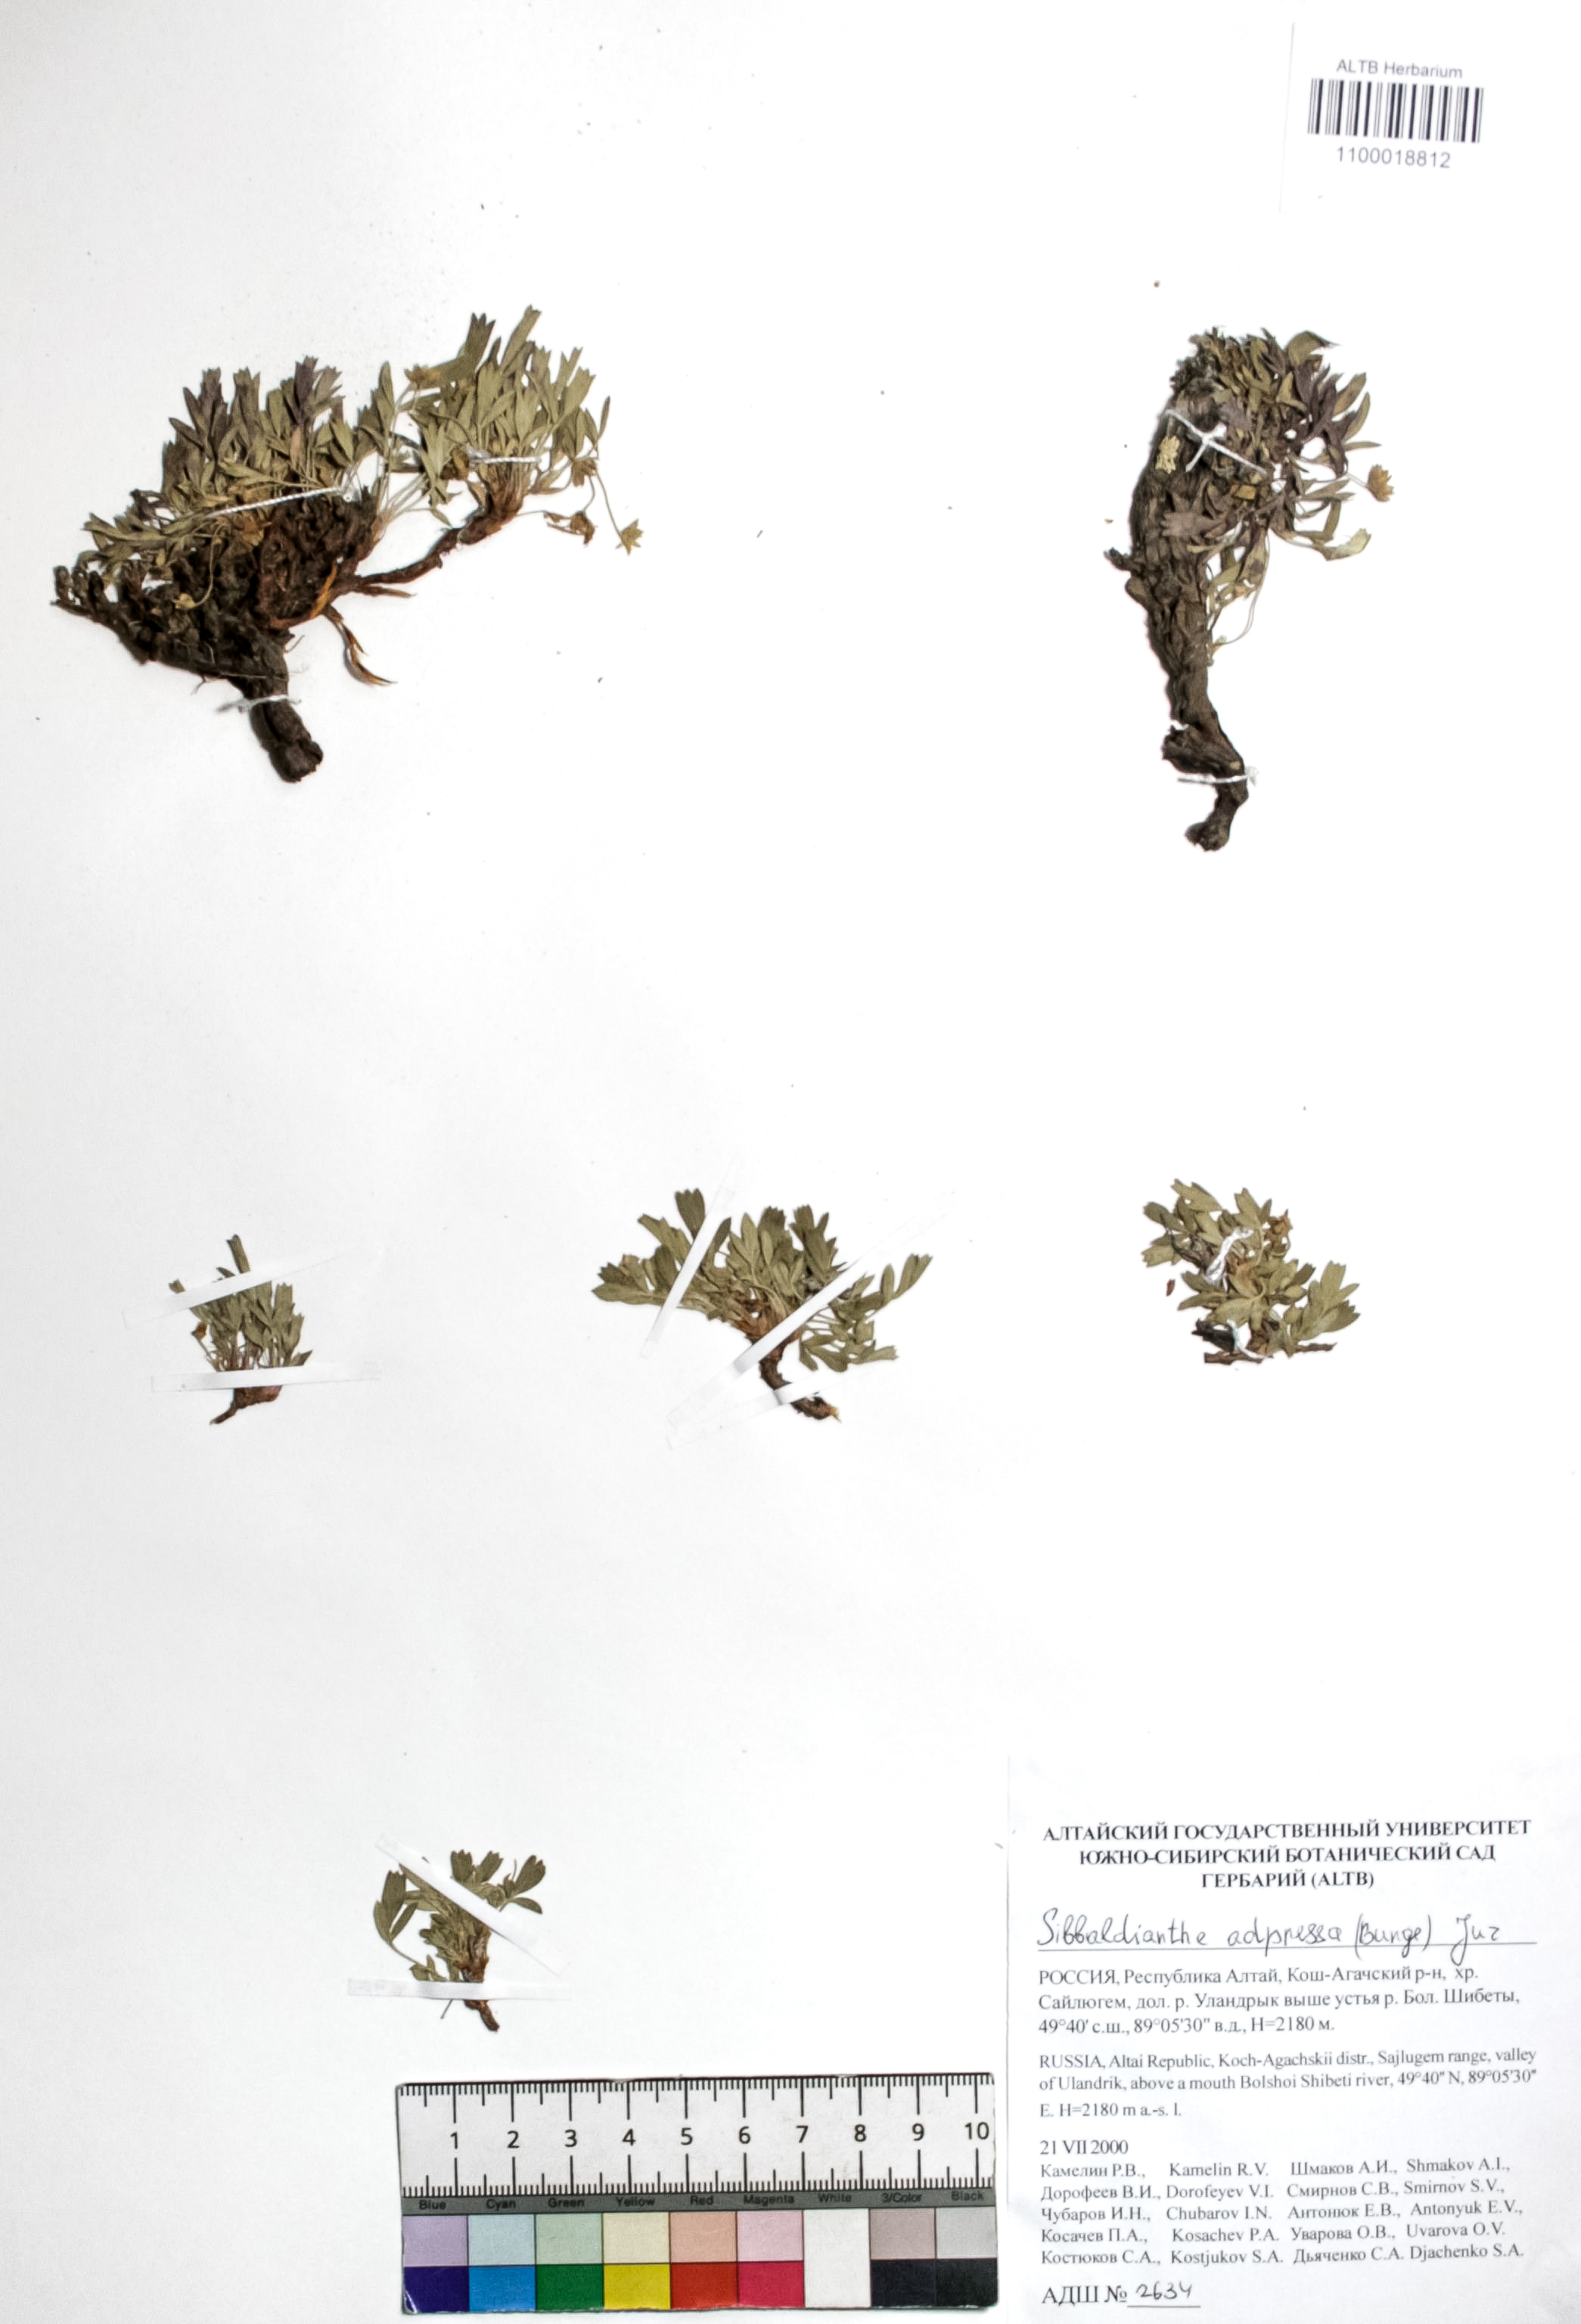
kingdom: Plantae
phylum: Tracheophyta
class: Magnoliopsida
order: Rosales
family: Rosaceae
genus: Sibbaldianthe
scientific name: Sibbaldianthe adpressa
